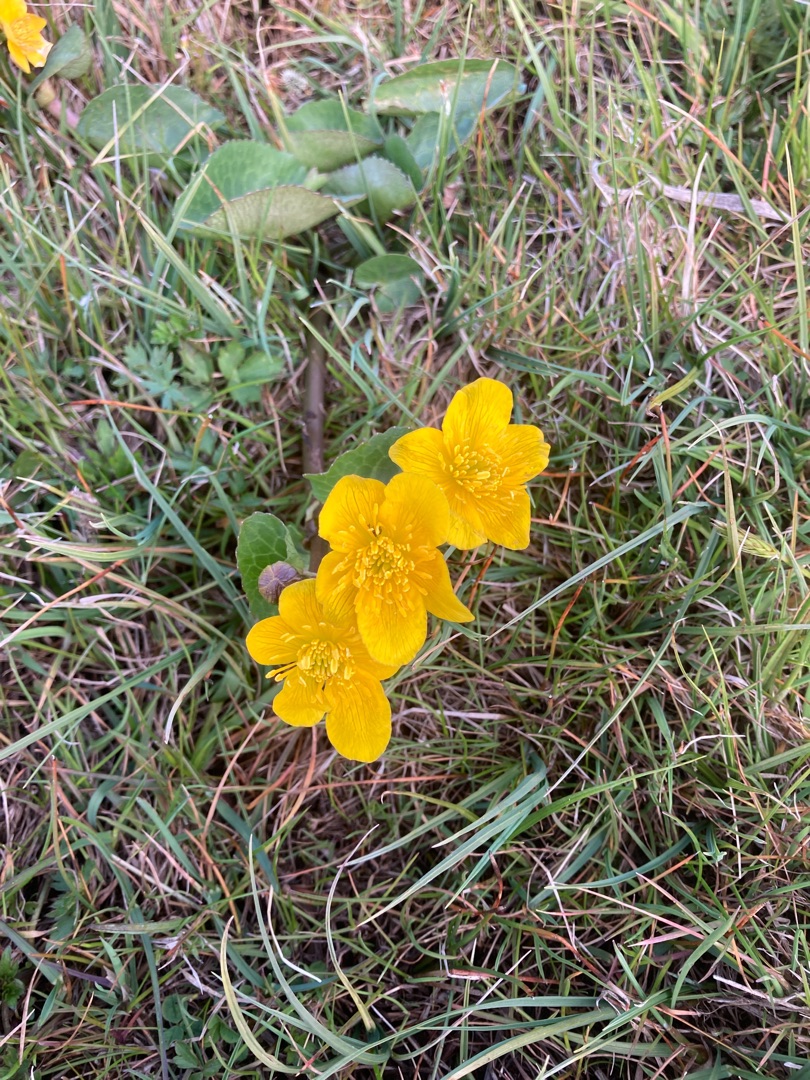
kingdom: Plantae
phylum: Tracheophyta
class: Magnoliopsida
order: Ranunculales
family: Ranunculaceae
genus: Caltha
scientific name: Caltha palustris
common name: Eng-kabbeleje
